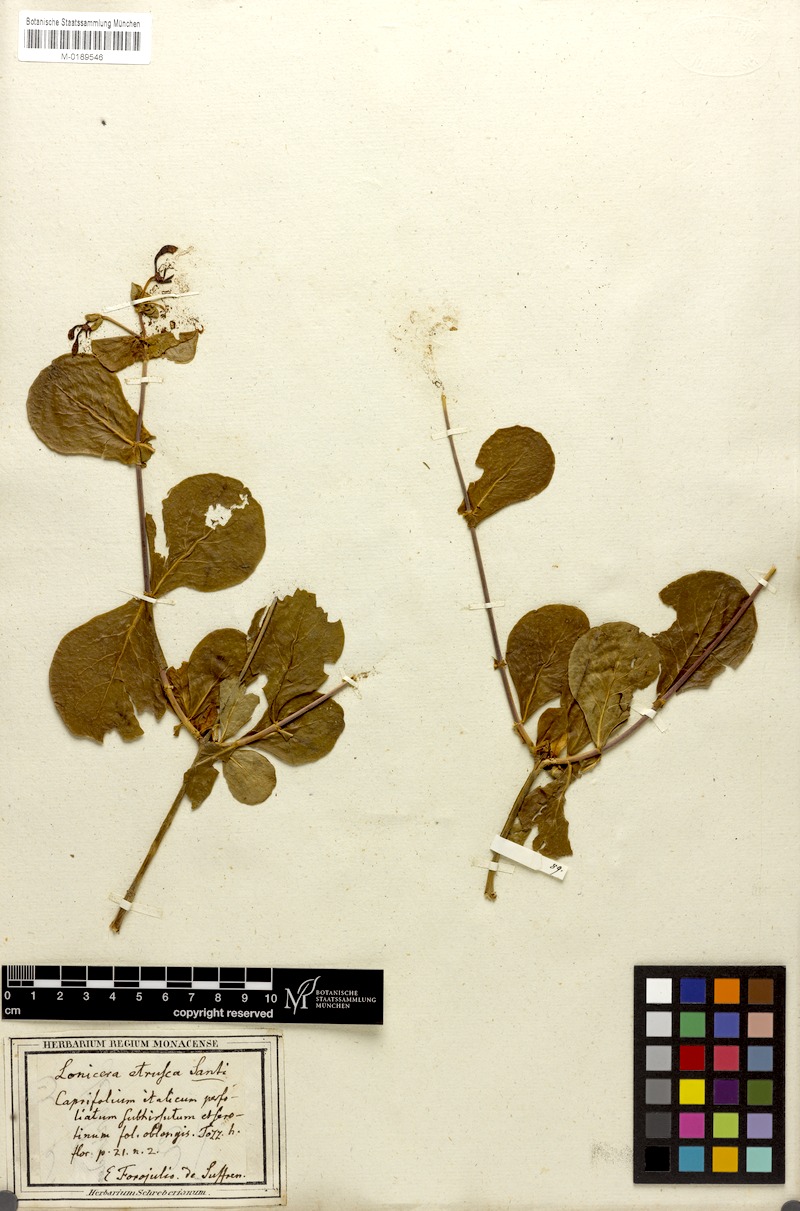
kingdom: Plantae
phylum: Tracheophyta
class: Magnoliopsida
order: Dipsacales
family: Caprifoliaceae
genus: Lonicera
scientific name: Lonicera etrusca
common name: Etruscan honeysuckle
